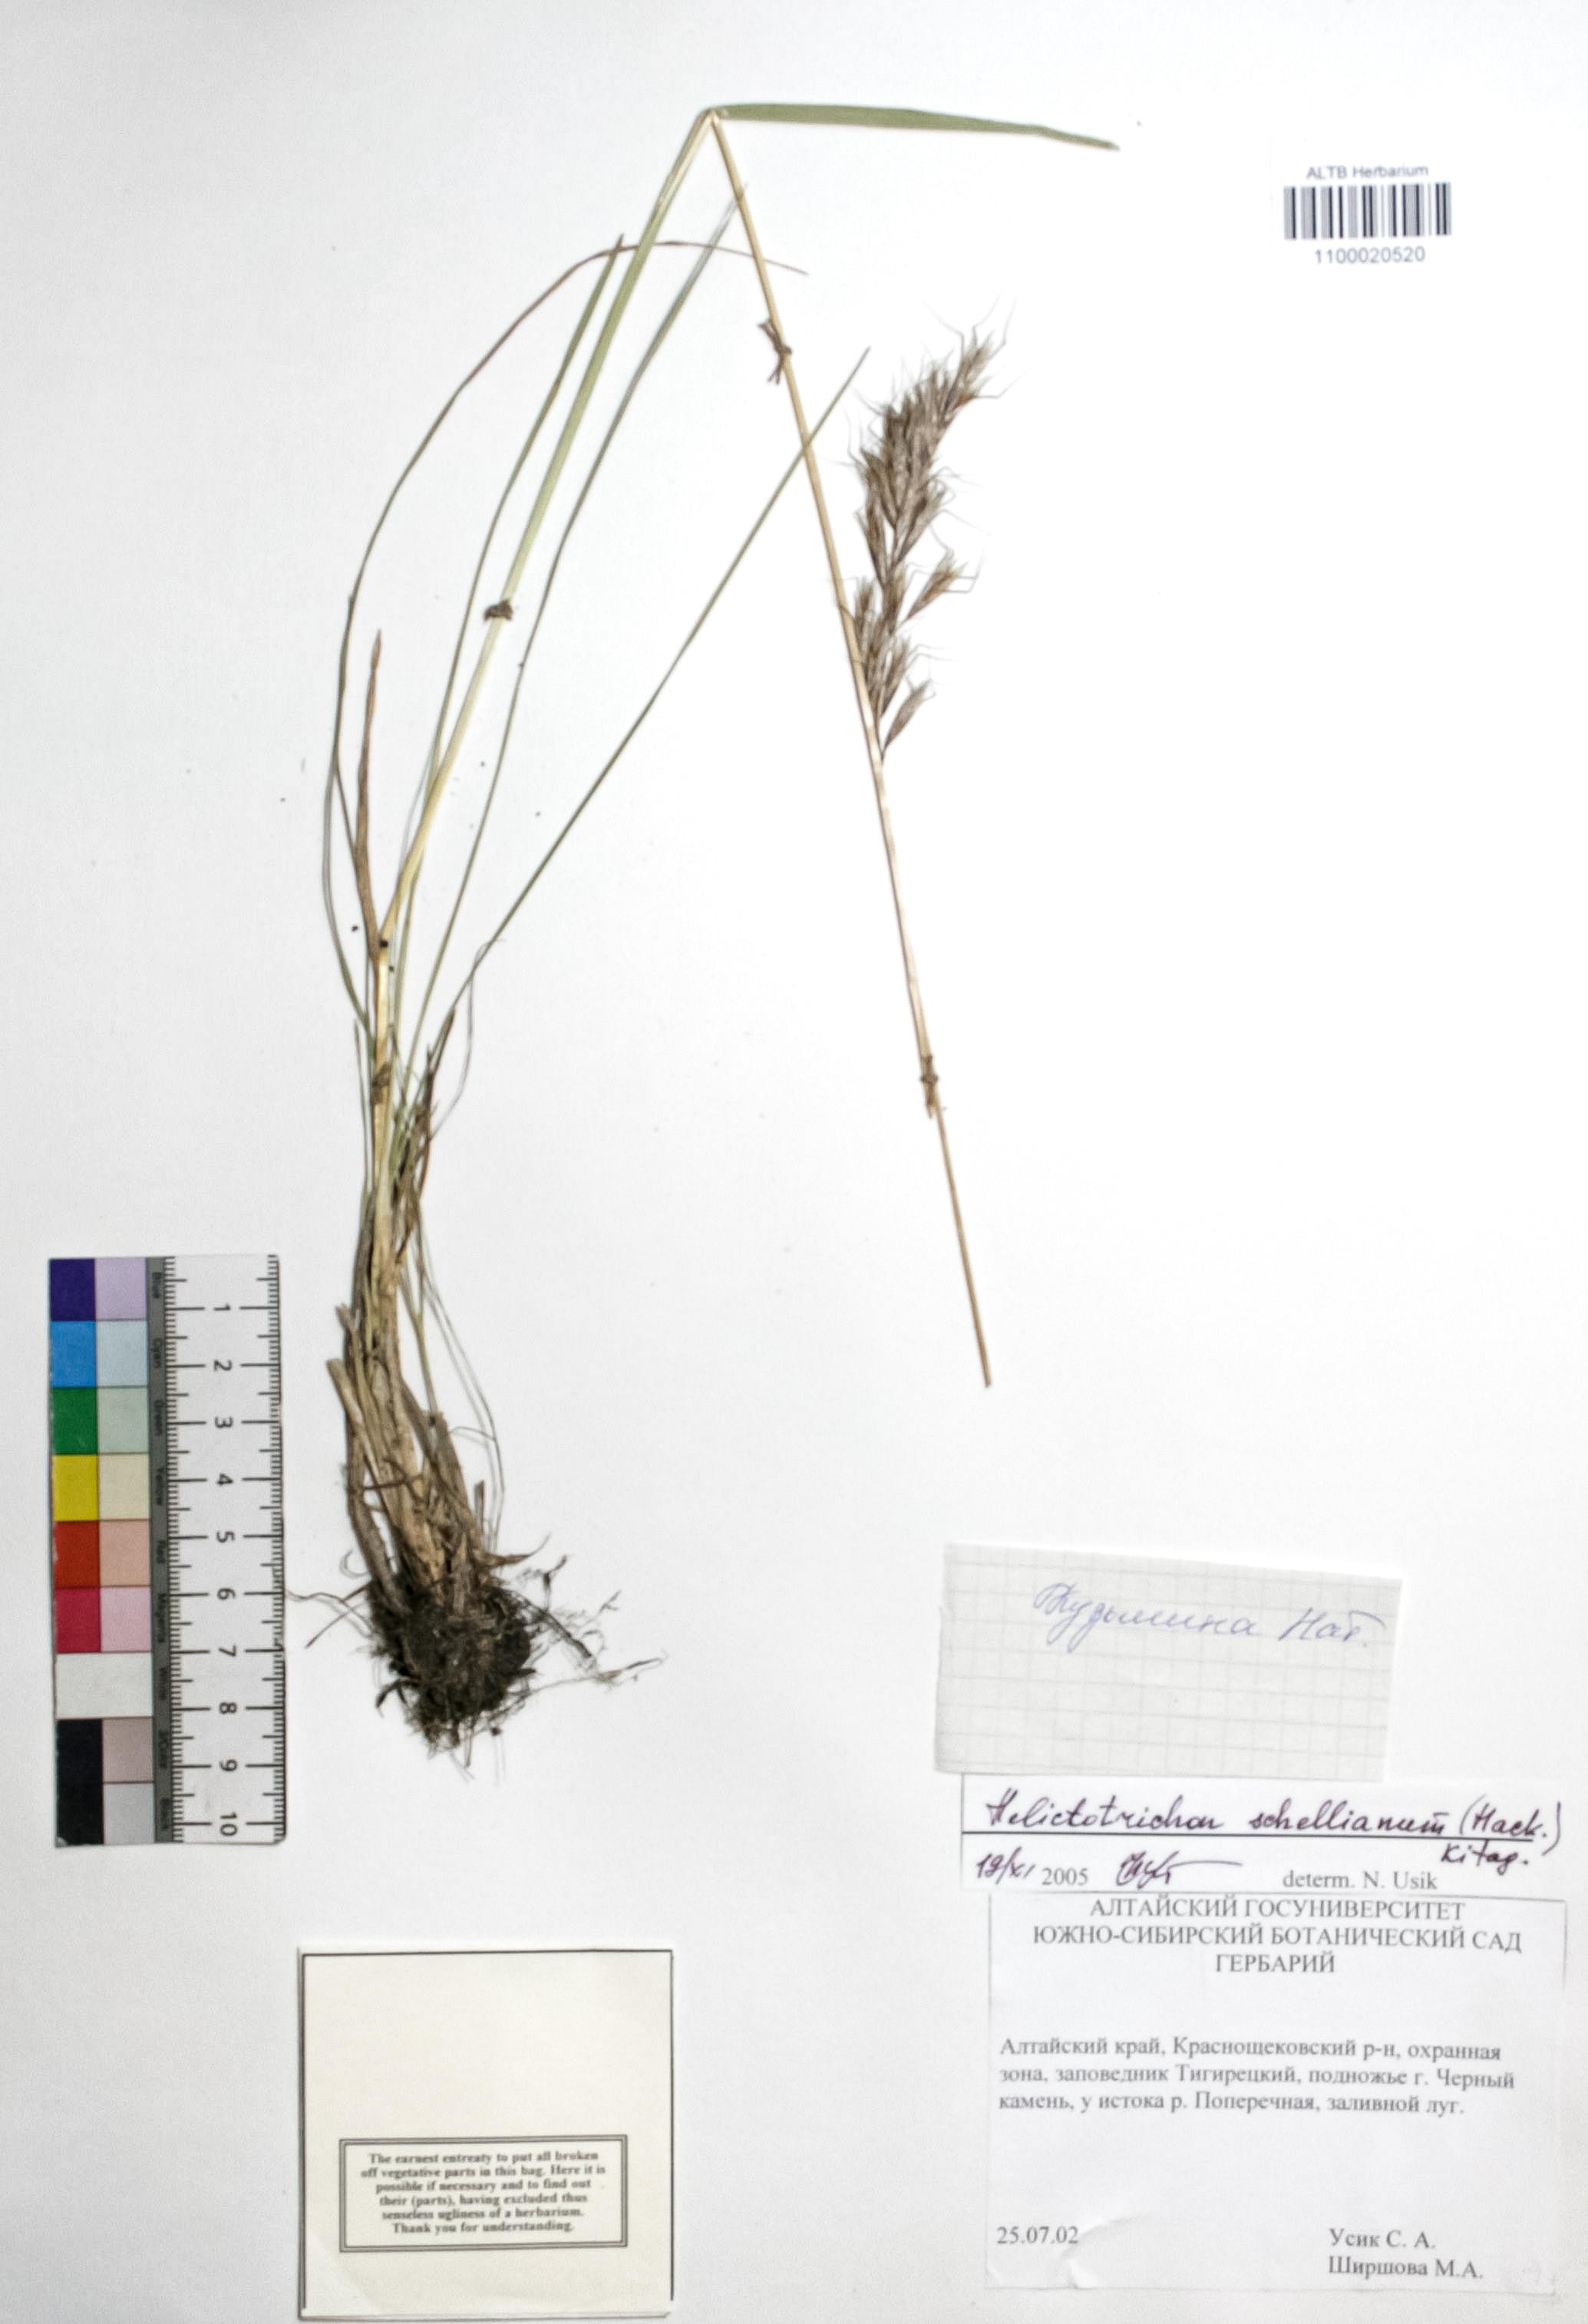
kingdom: Plantae
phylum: Tracheophyta
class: Liliopsida
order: Poales
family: Poaceae
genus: Helictochloa
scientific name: Helictochloa hookeri
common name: Hooker's alpine oatgrass
